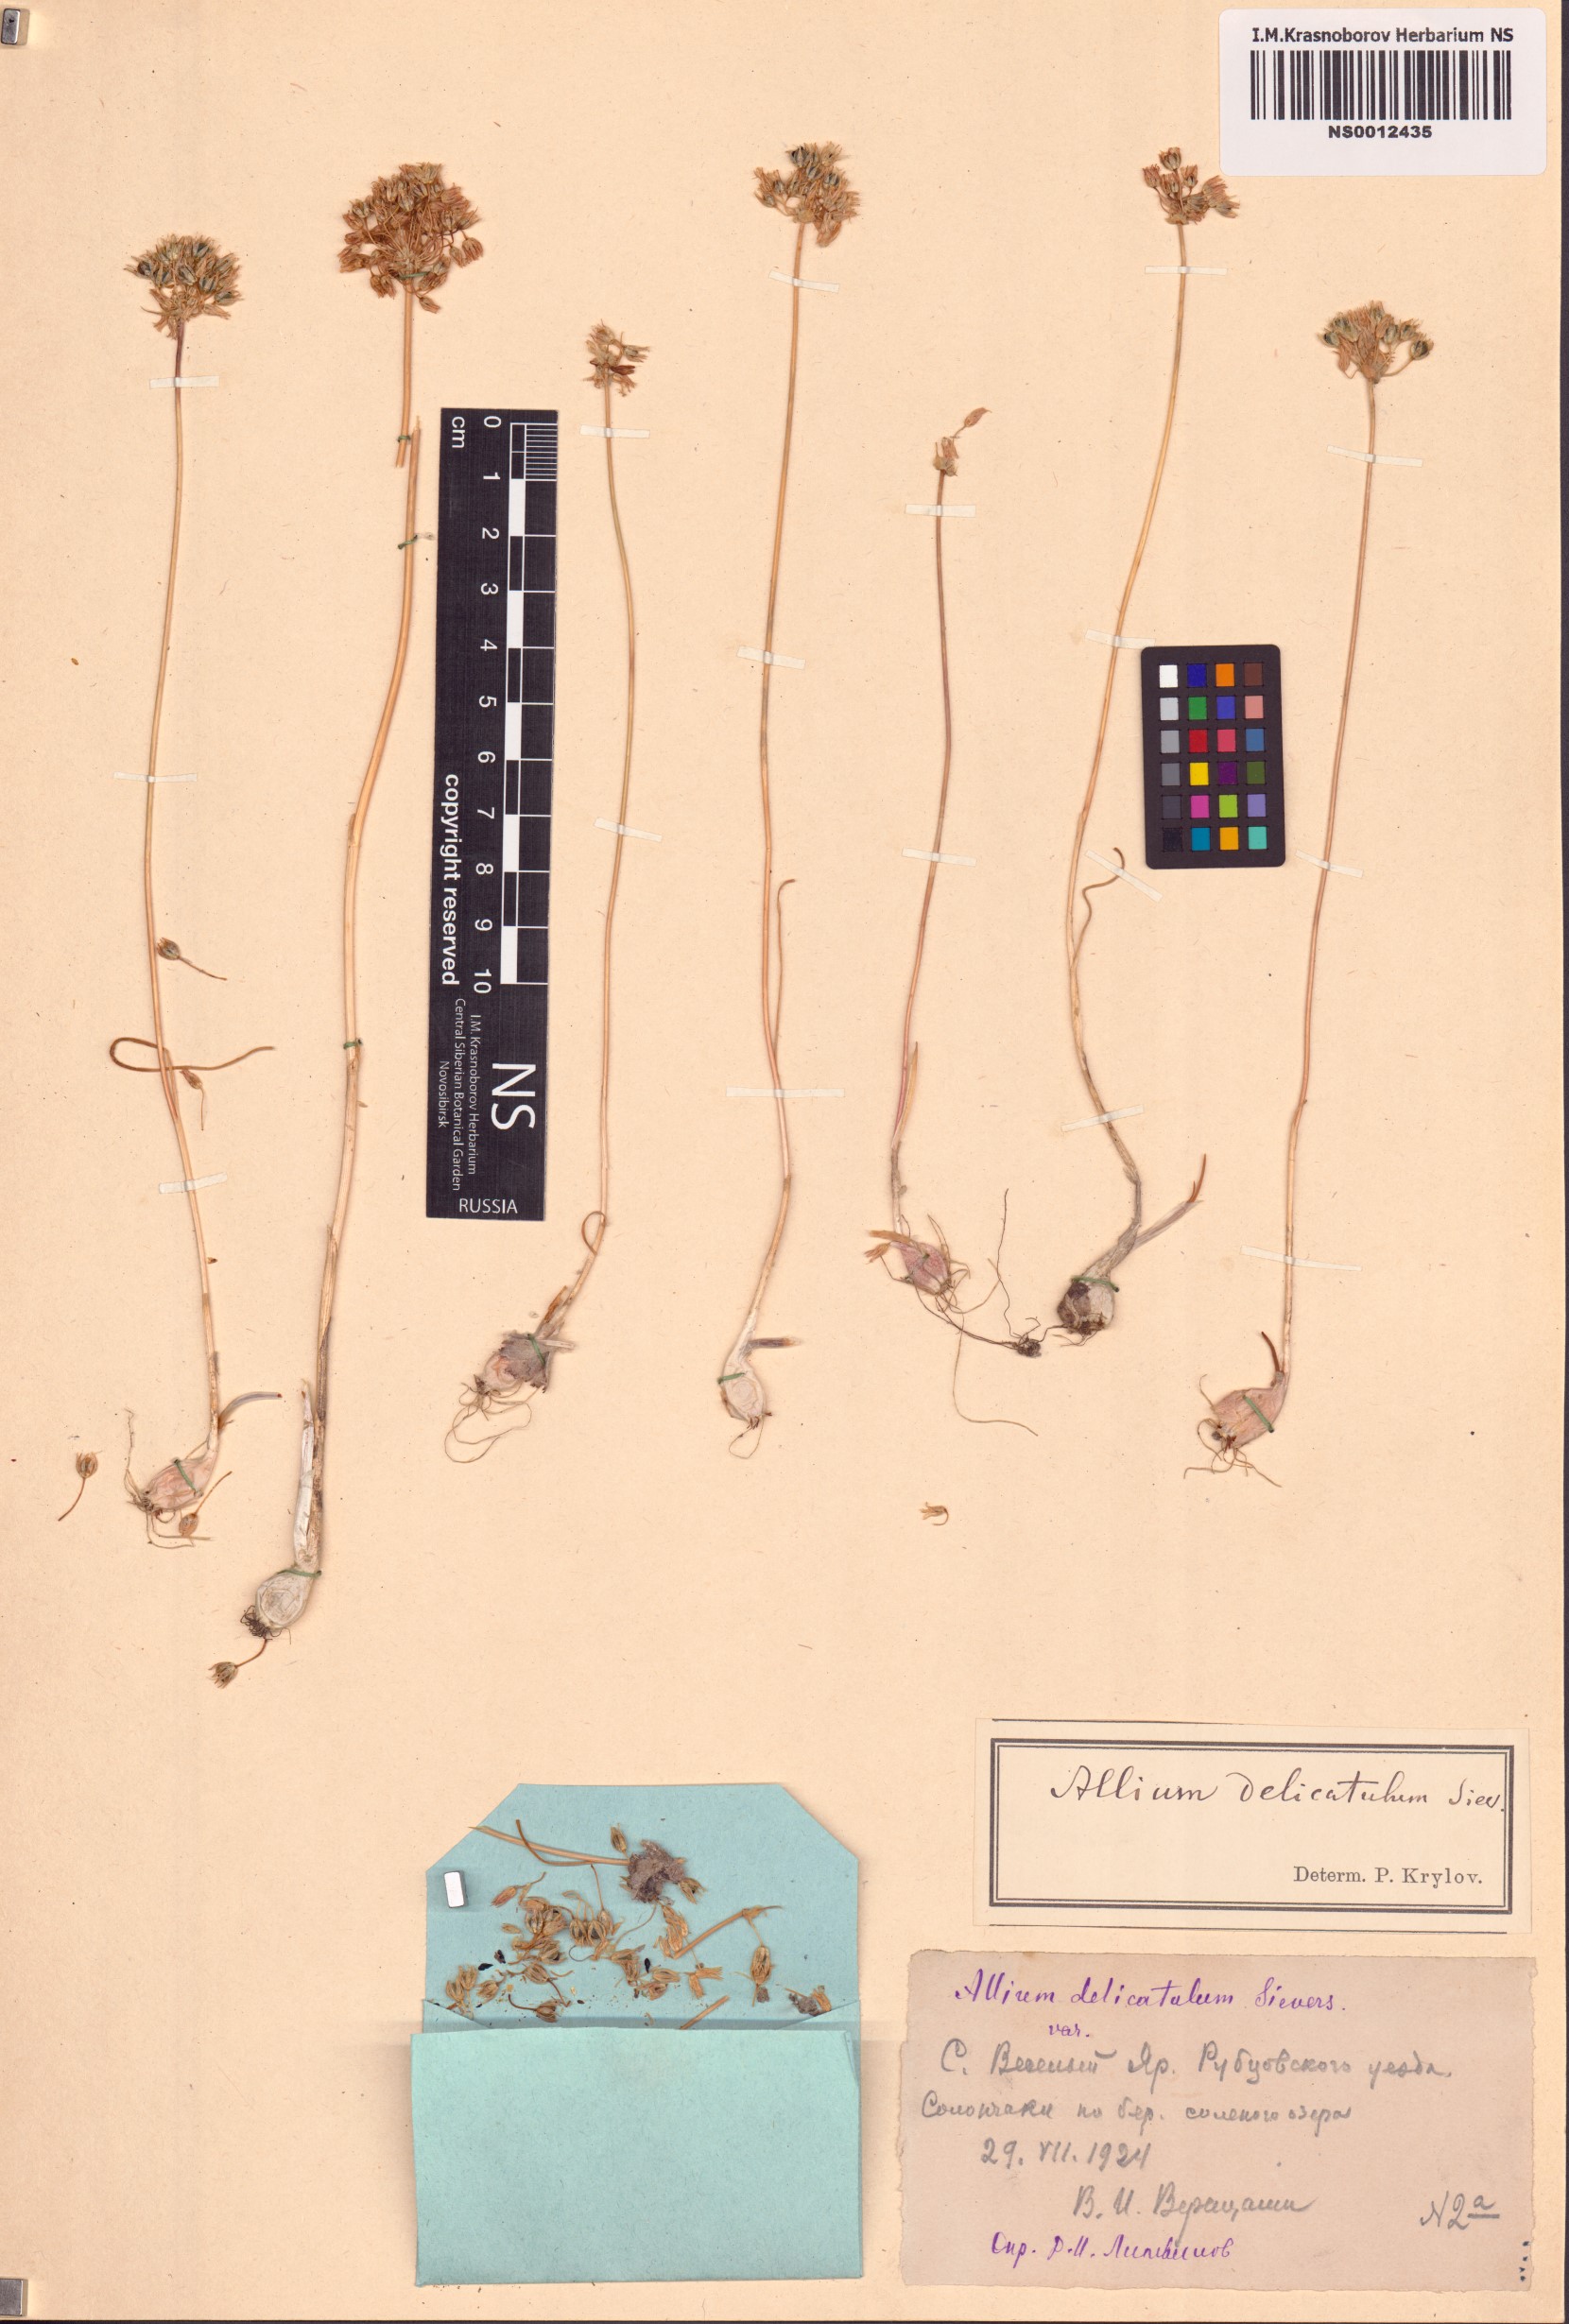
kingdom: Plantae
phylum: Tracheophyta
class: Liliopsida
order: Asparagales
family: Amaryllidaceae
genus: Allium
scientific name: Allium delicatulum
